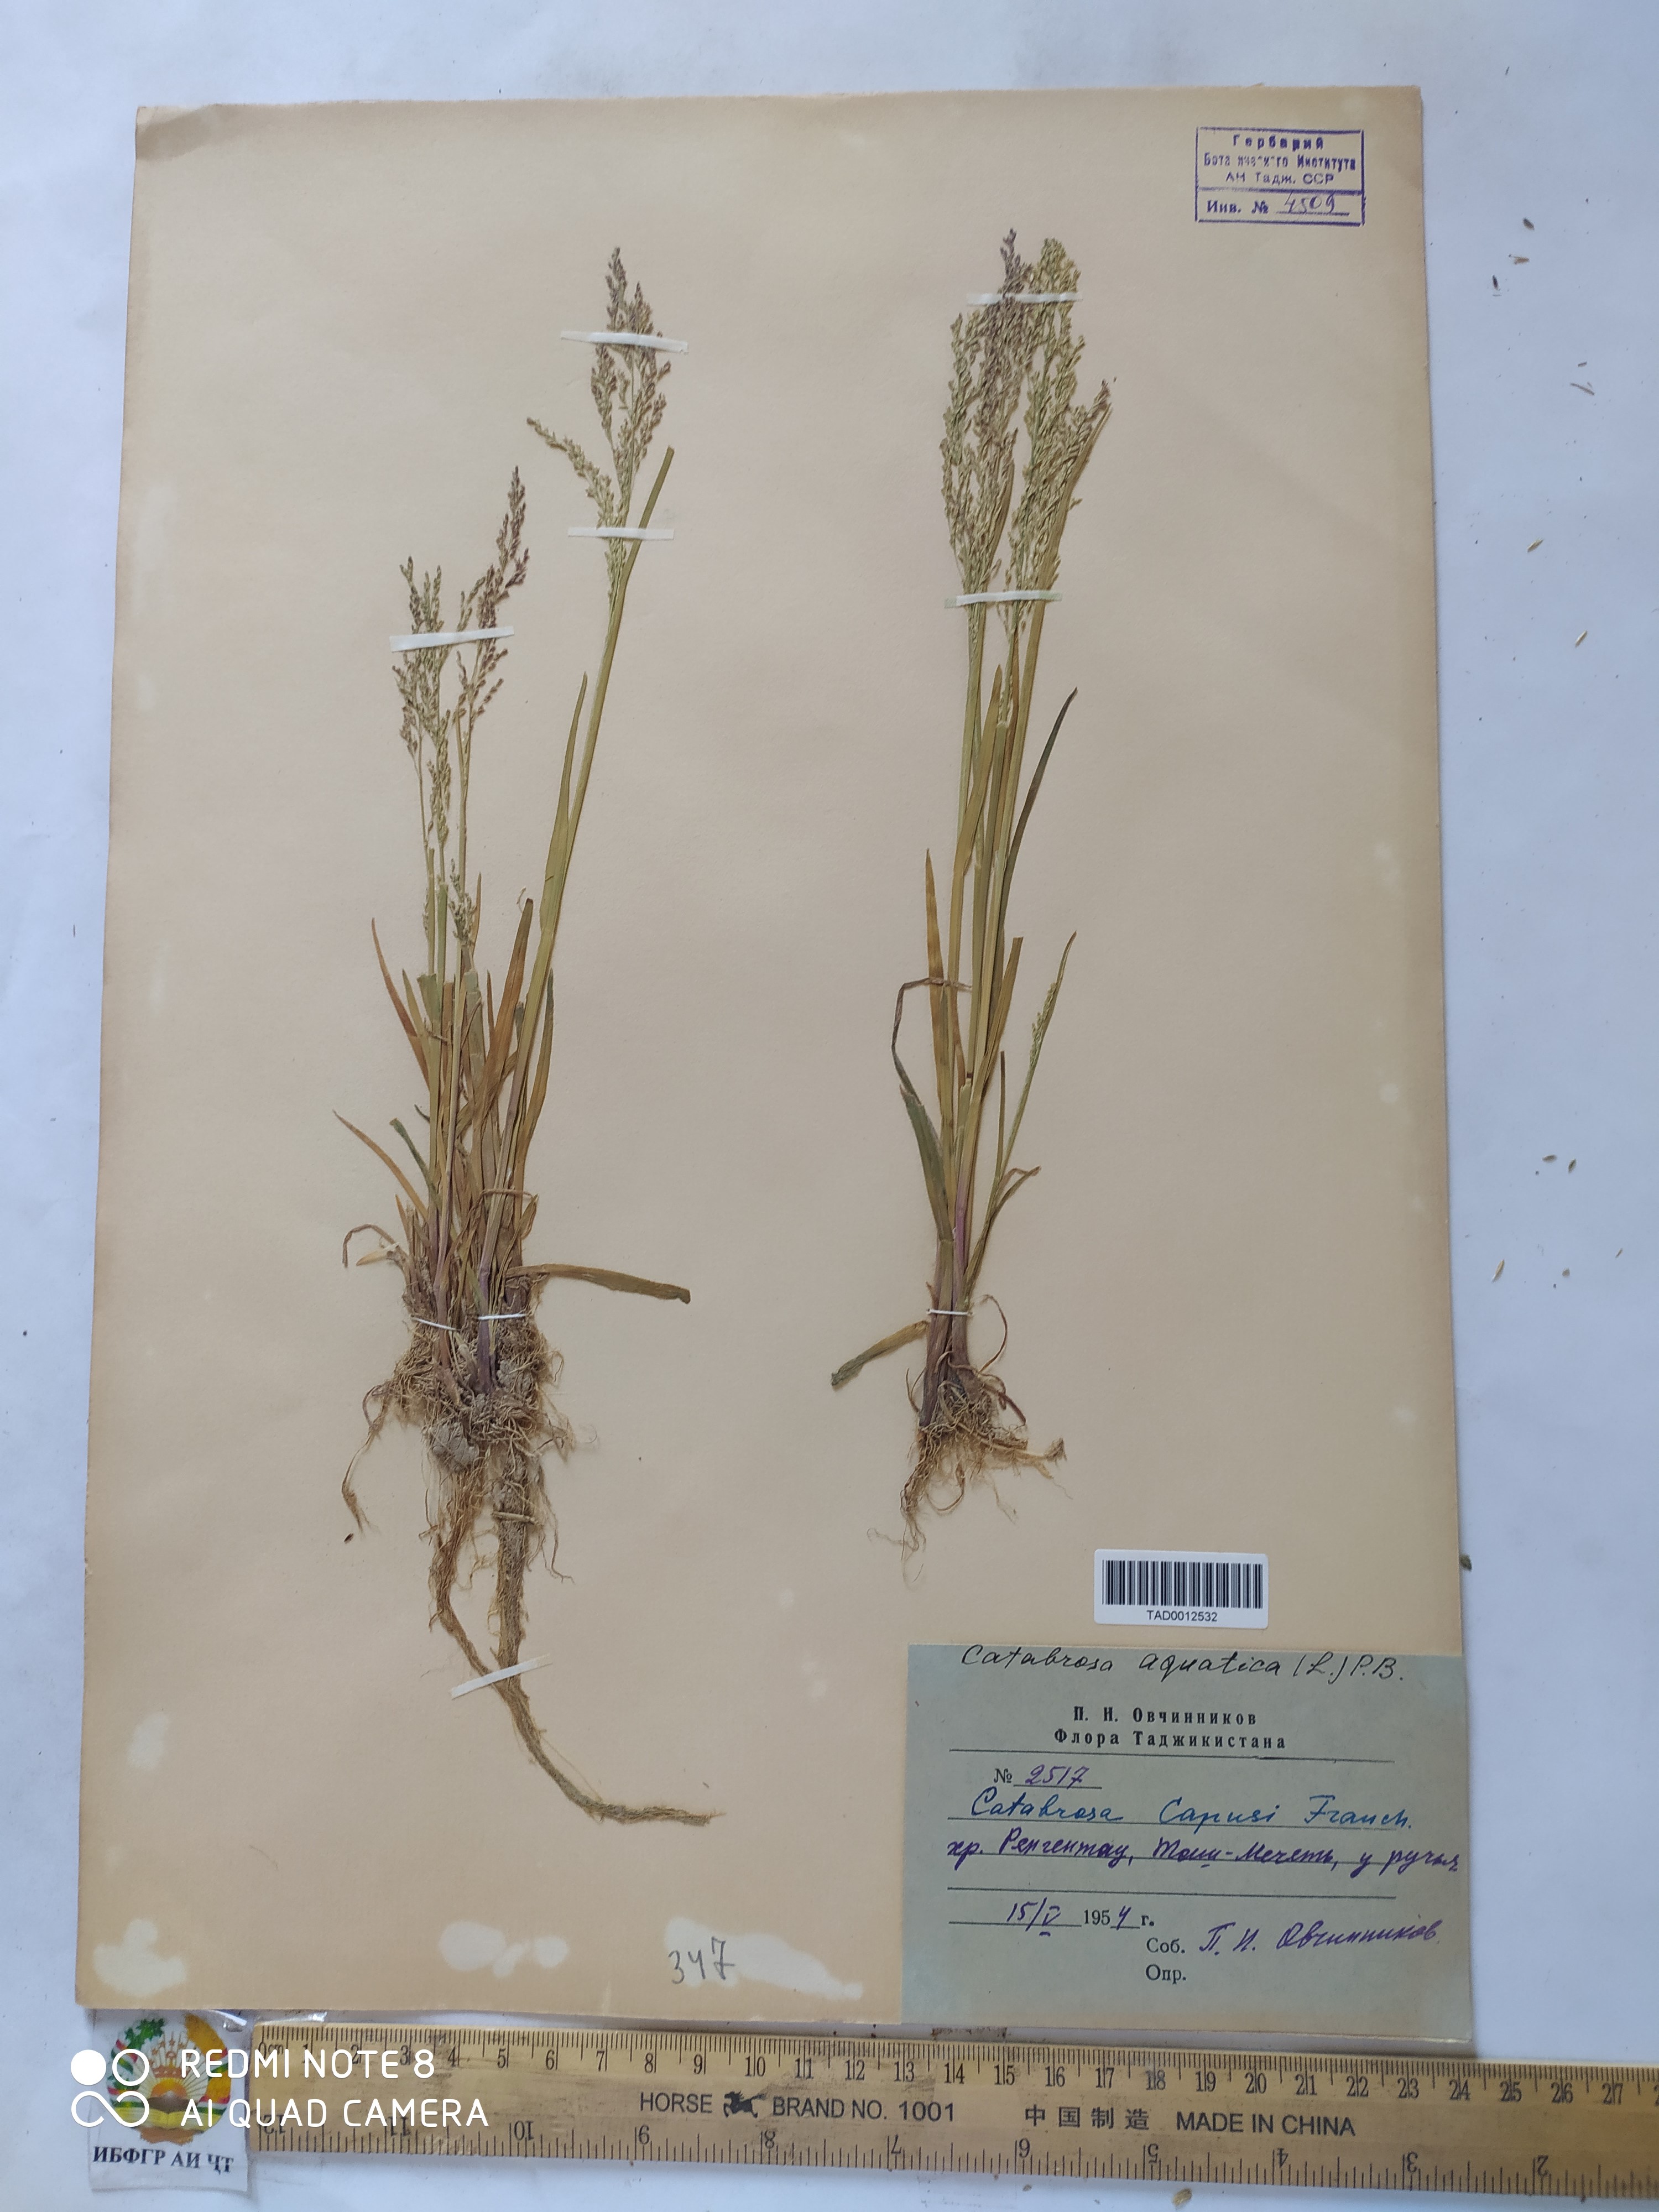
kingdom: Plantae
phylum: Tracheophyta
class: Liliopsida
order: Poales
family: Poaceae
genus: Catabrosa
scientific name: Catabrosa aquatica
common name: Whorl-grass
